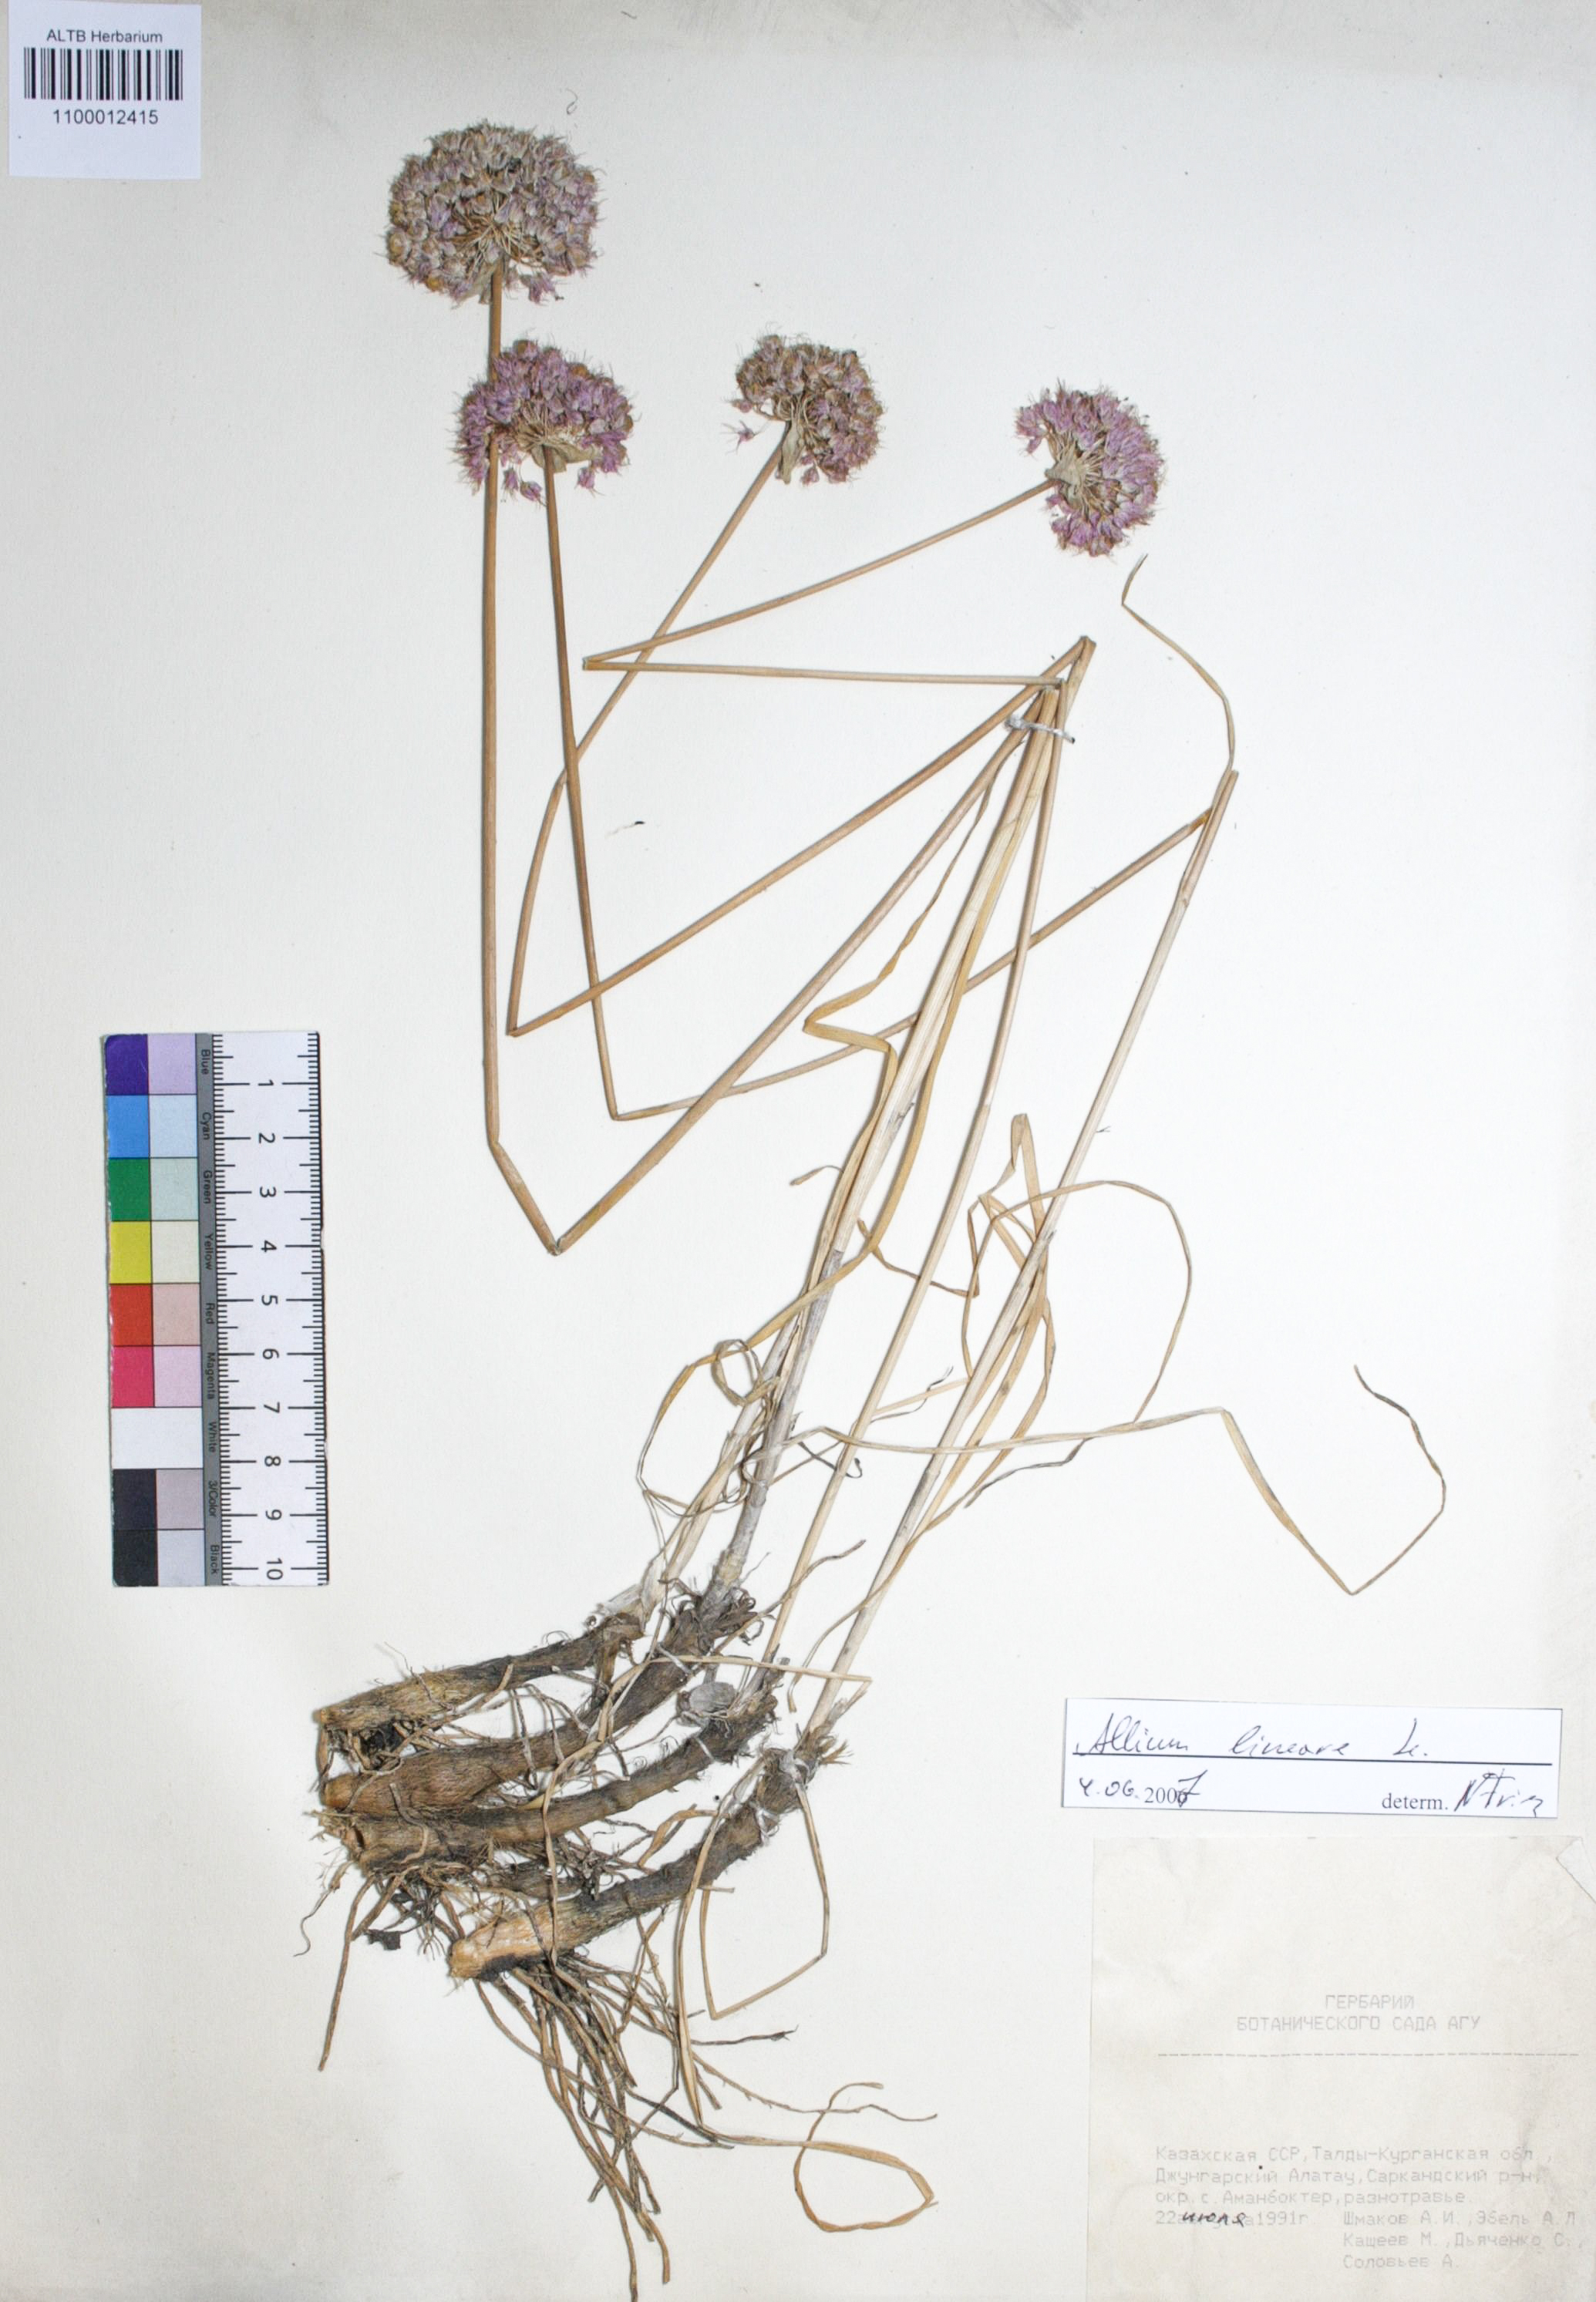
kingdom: Plantae
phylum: Tracheophyta
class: Liliopsida
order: Asparagales
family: Amaryllidaceae
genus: Allium
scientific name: Allium lineare
